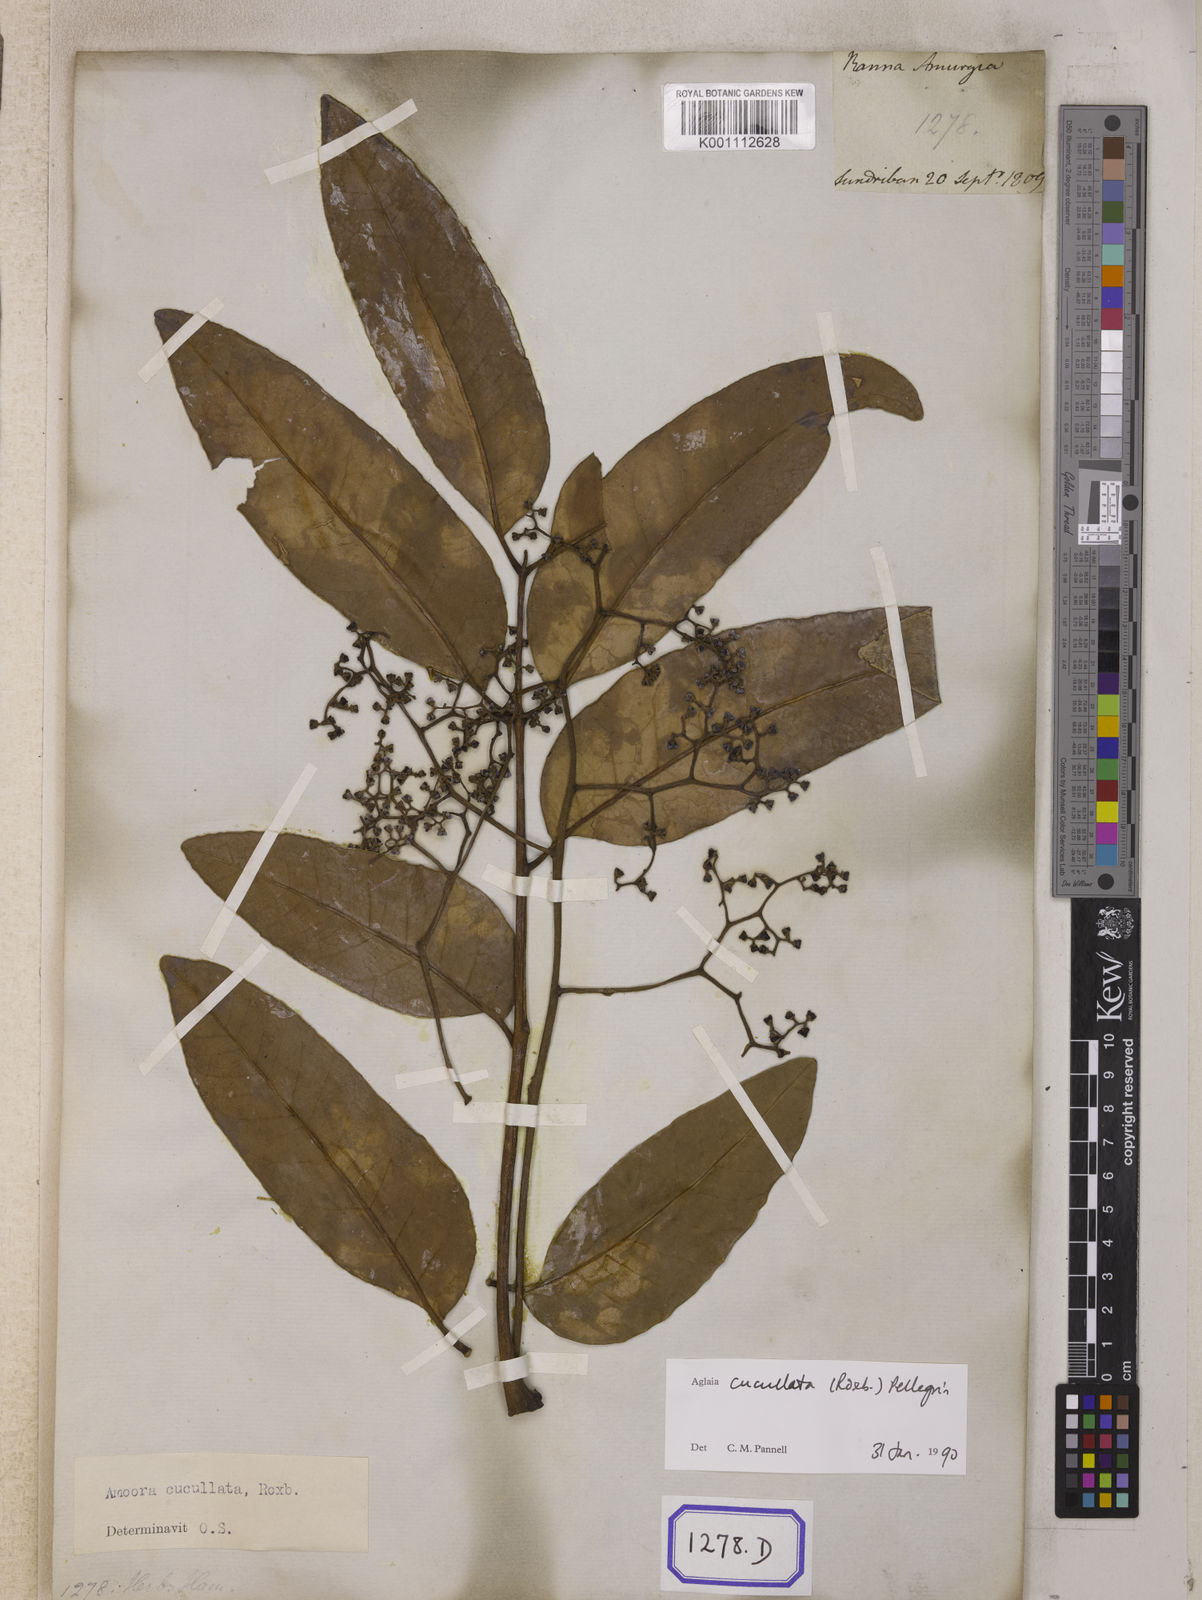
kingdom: Plantae
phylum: Tracheophyta
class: Magnoliopsida
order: Sapindales
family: Meliaceae
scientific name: Meliaceae
